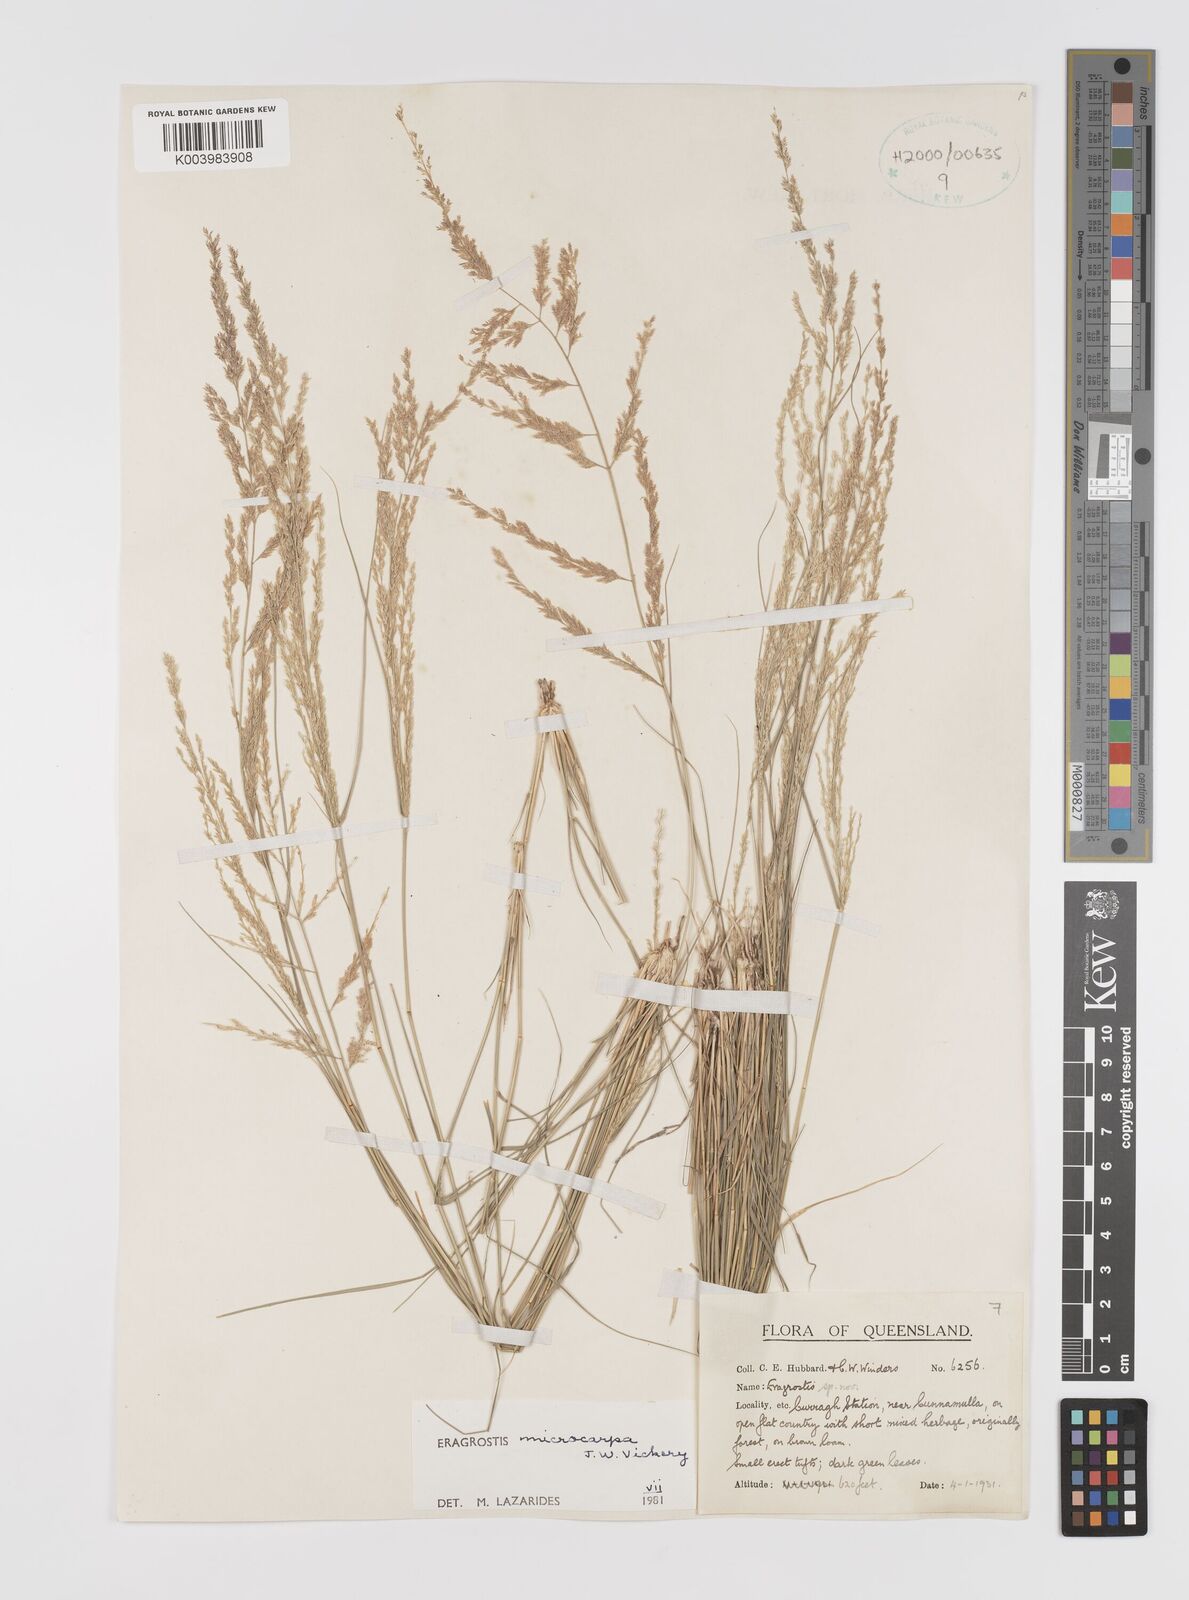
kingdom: Plantae
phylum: Tracheophyta
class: Liliopsida
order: Poales
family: Poaceae
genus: Eragrostis
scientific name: Eragrostis microcarpa
